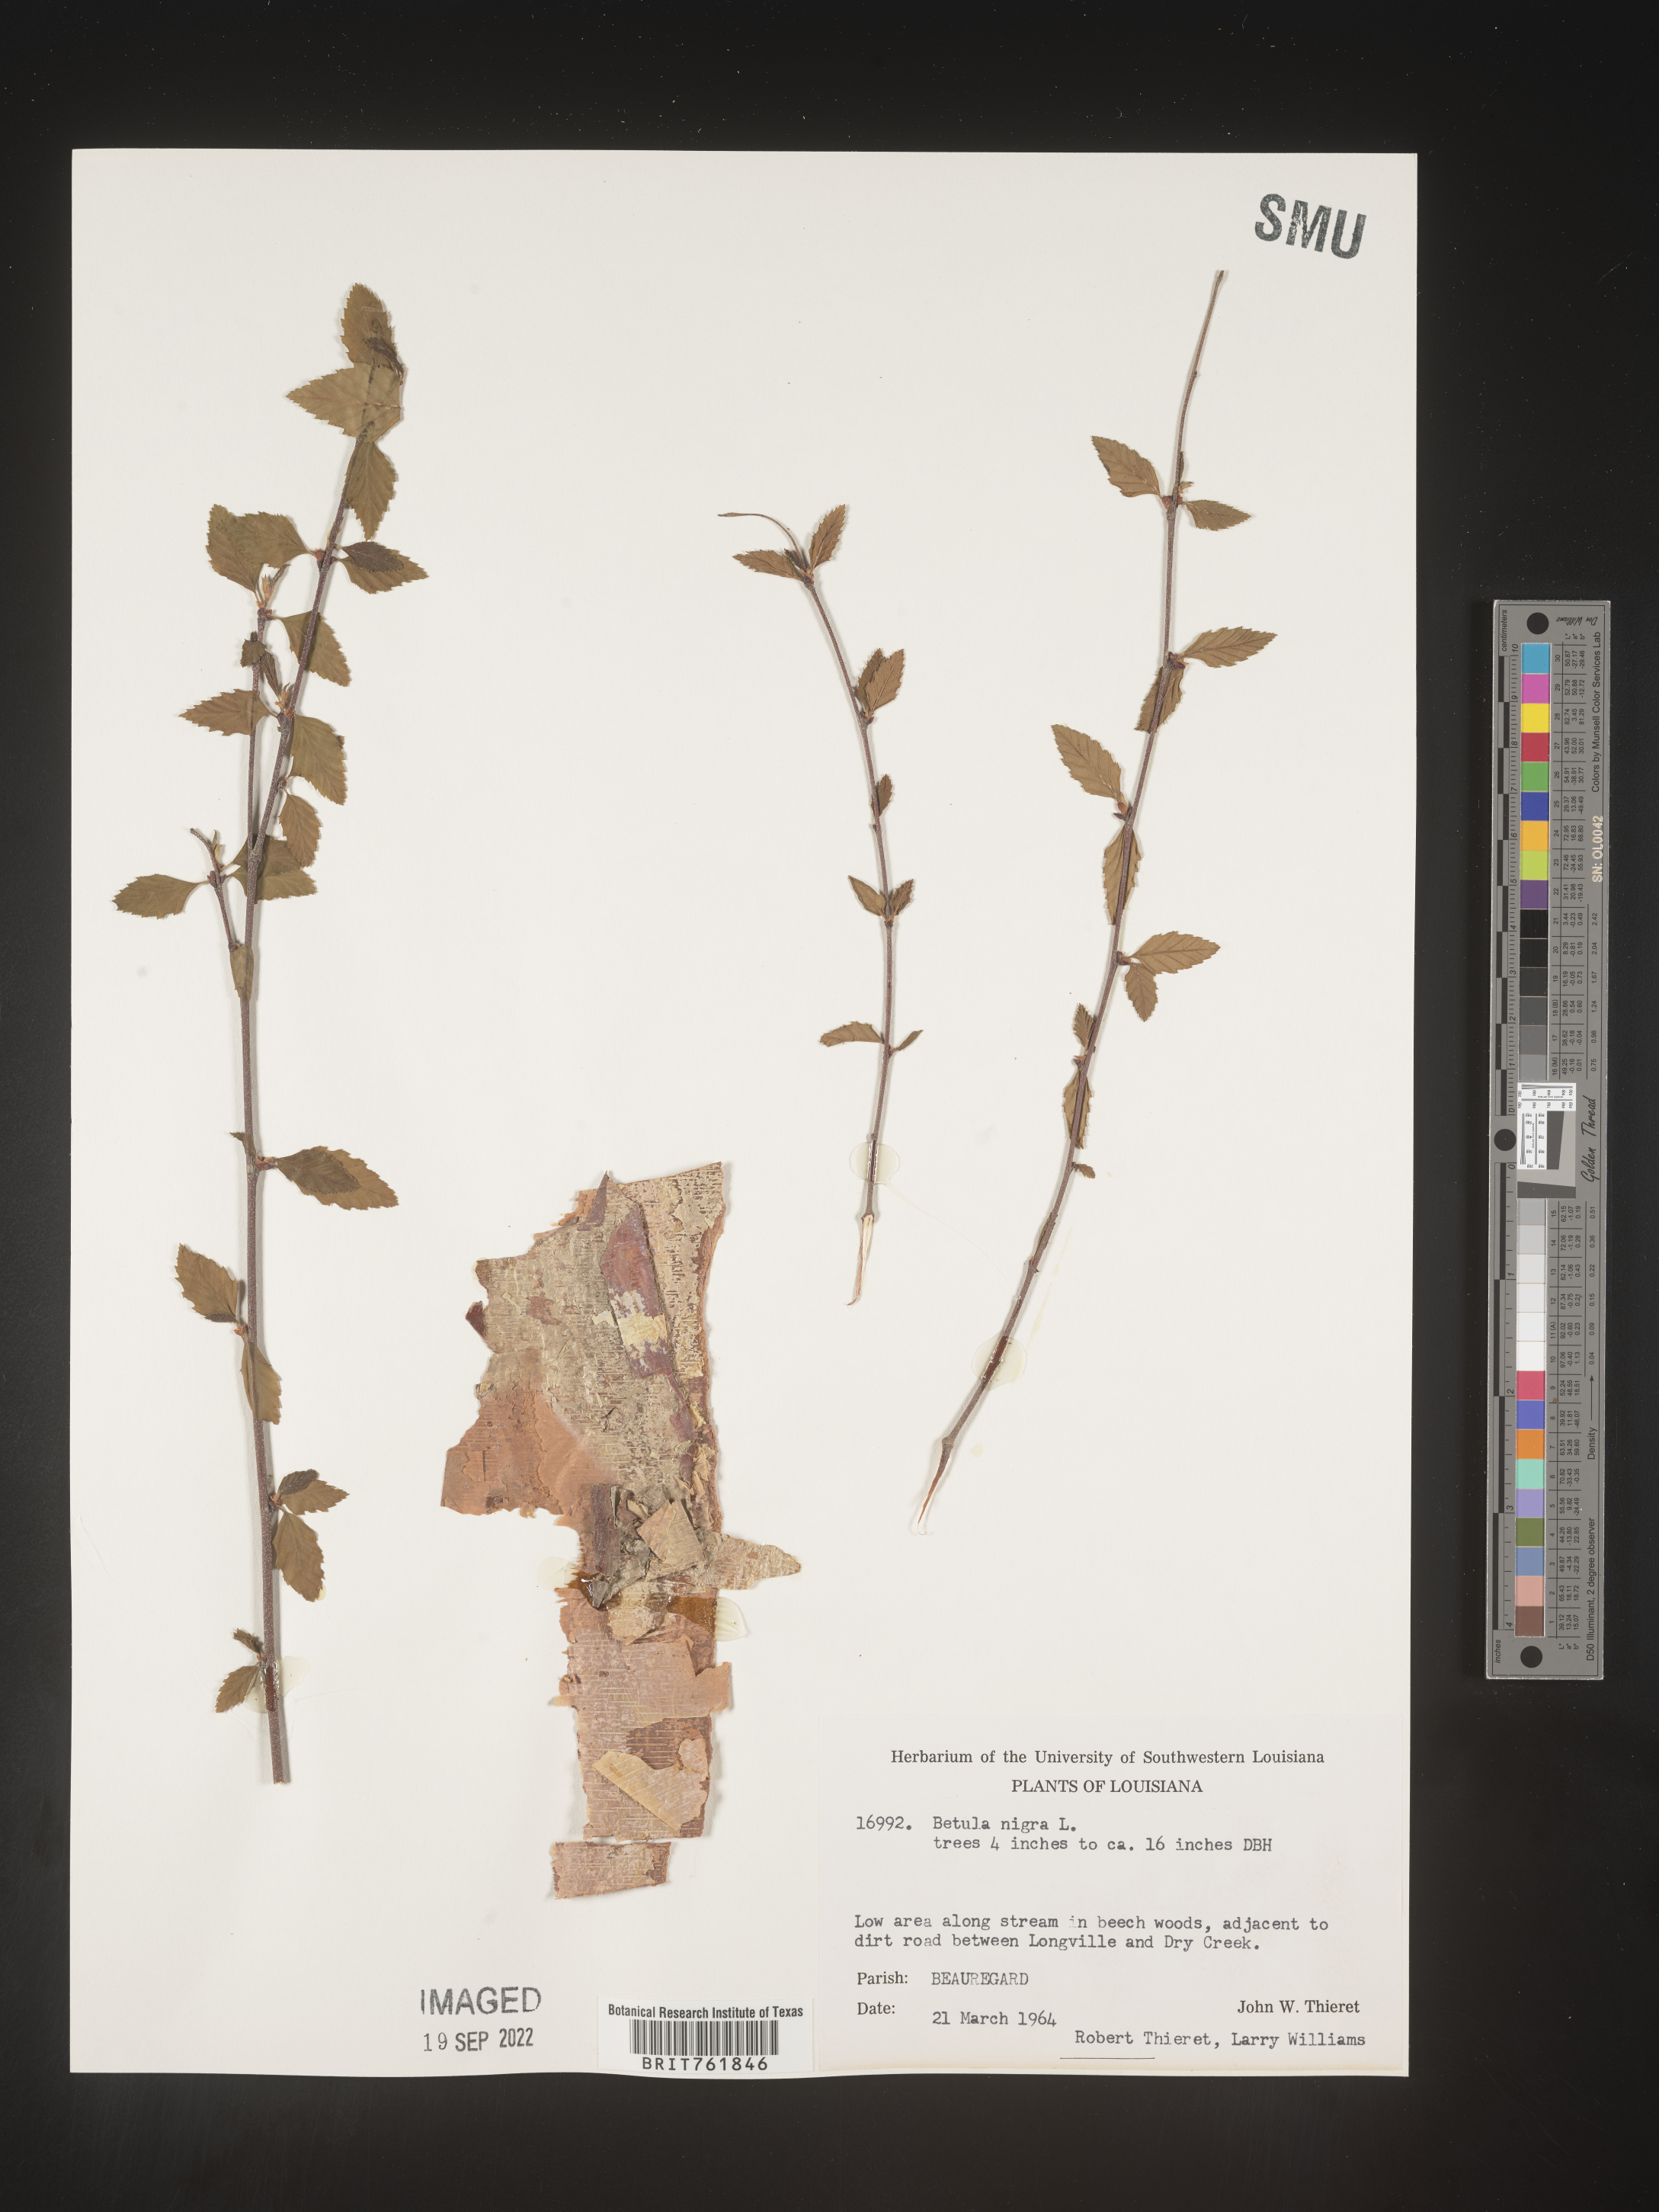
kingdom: Plantae
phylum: Tracheophyta
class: Magnoliopsida
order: Fagales
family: Betulaceae
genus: Betula
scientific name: Betula nigra
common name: Black birch
